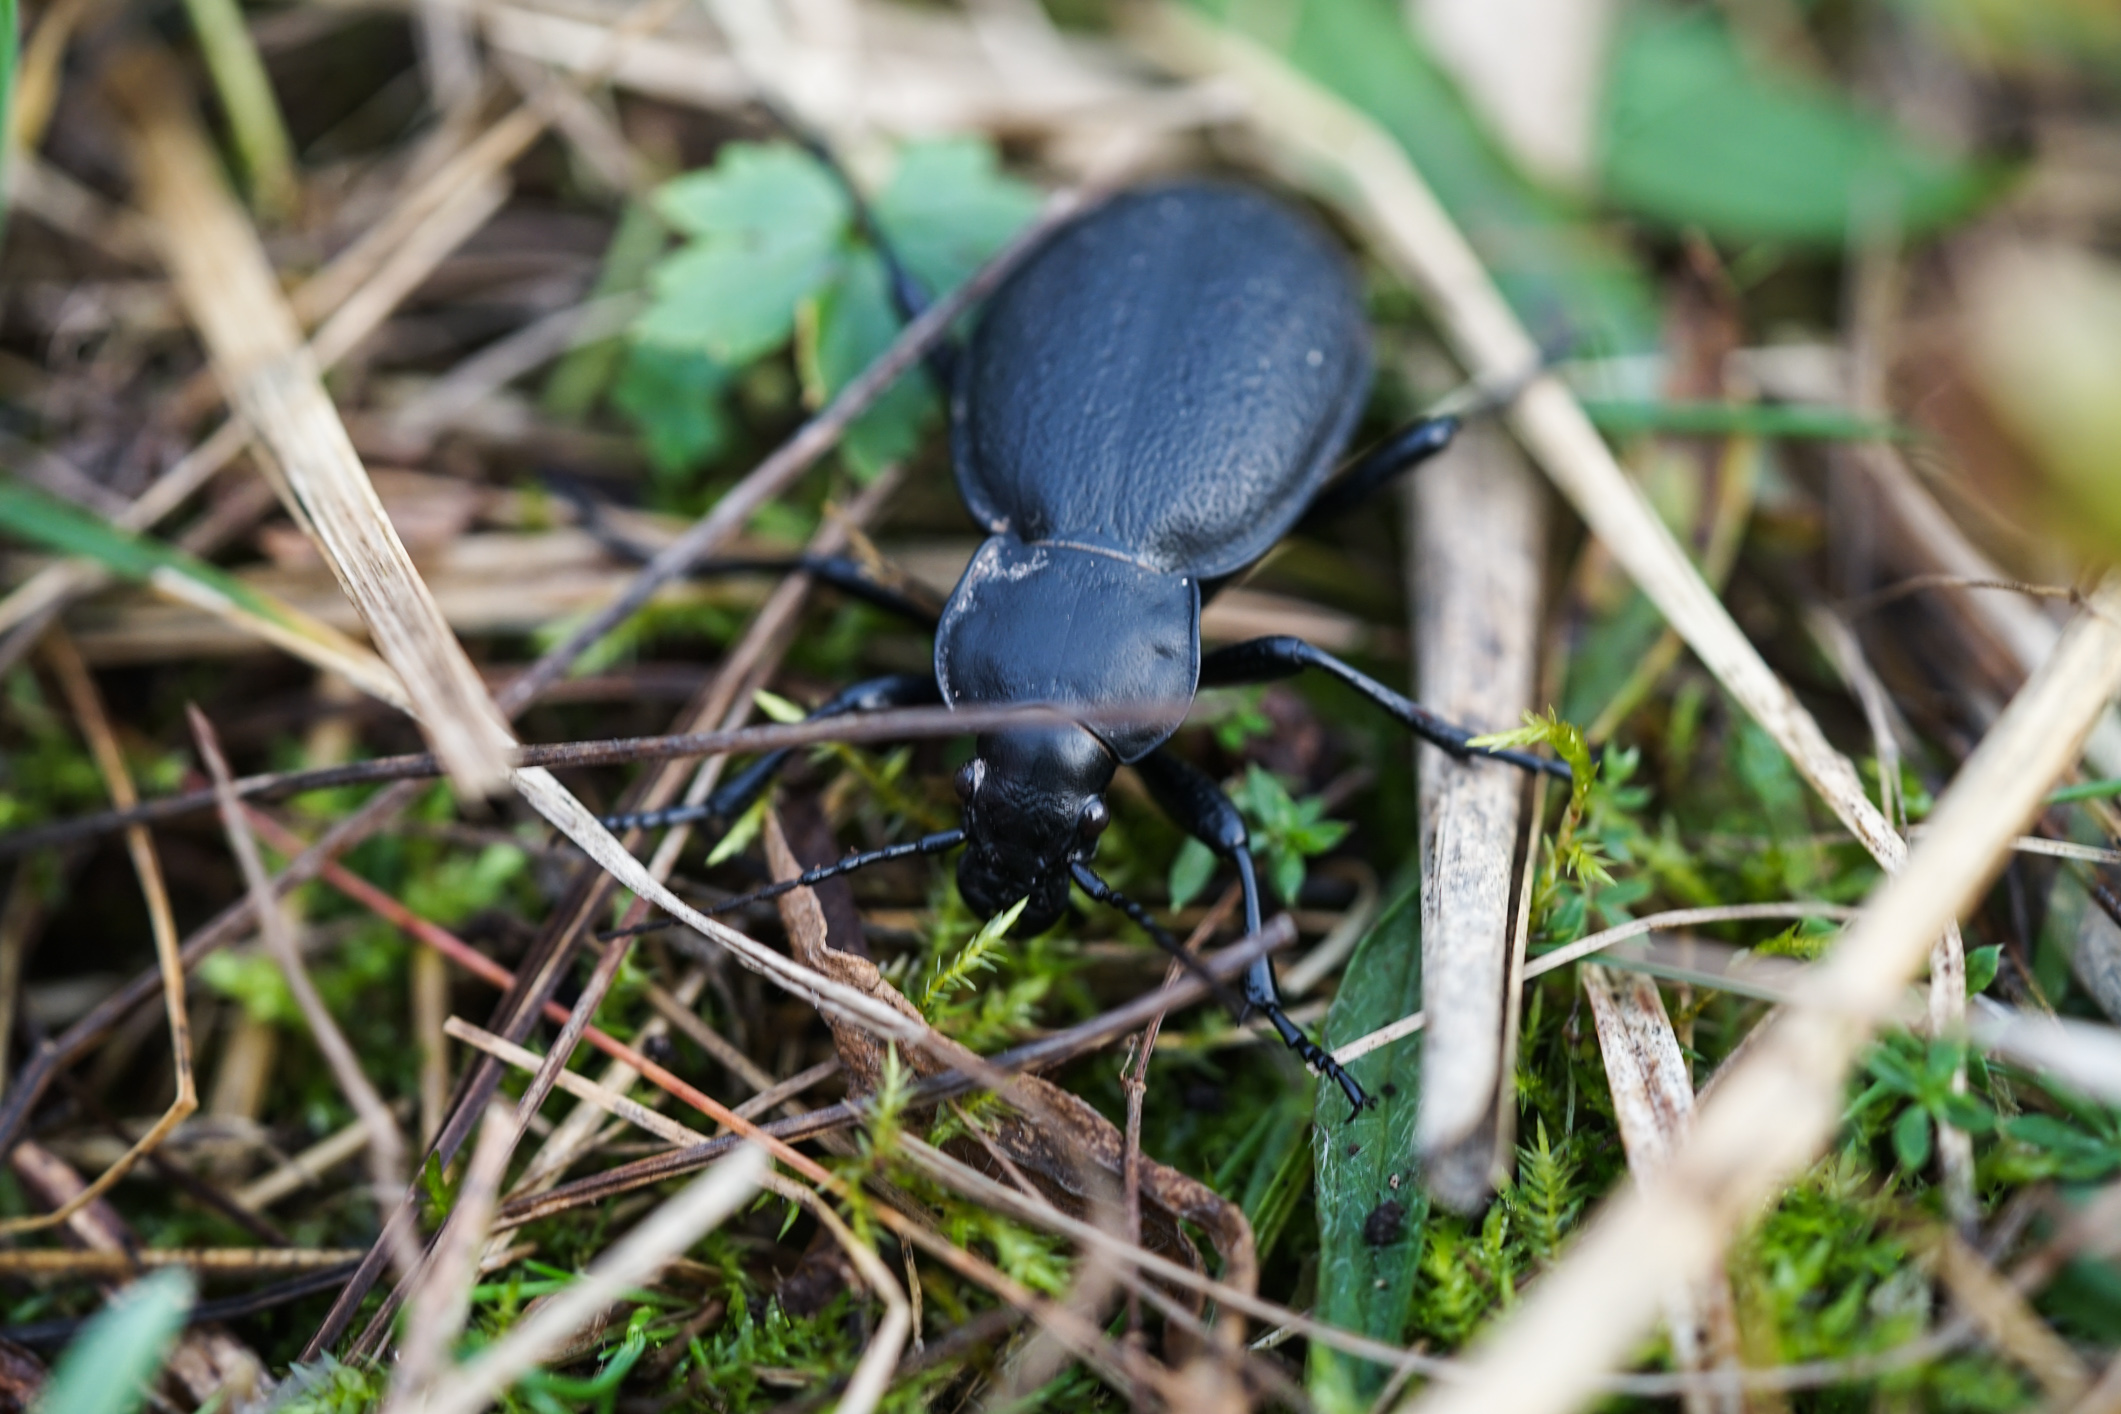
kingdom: Animalia
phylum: Arthropoda
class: Insecta
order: Coleoptera
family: Carabidae
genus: Carabus
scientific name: Carabus coriaceus
